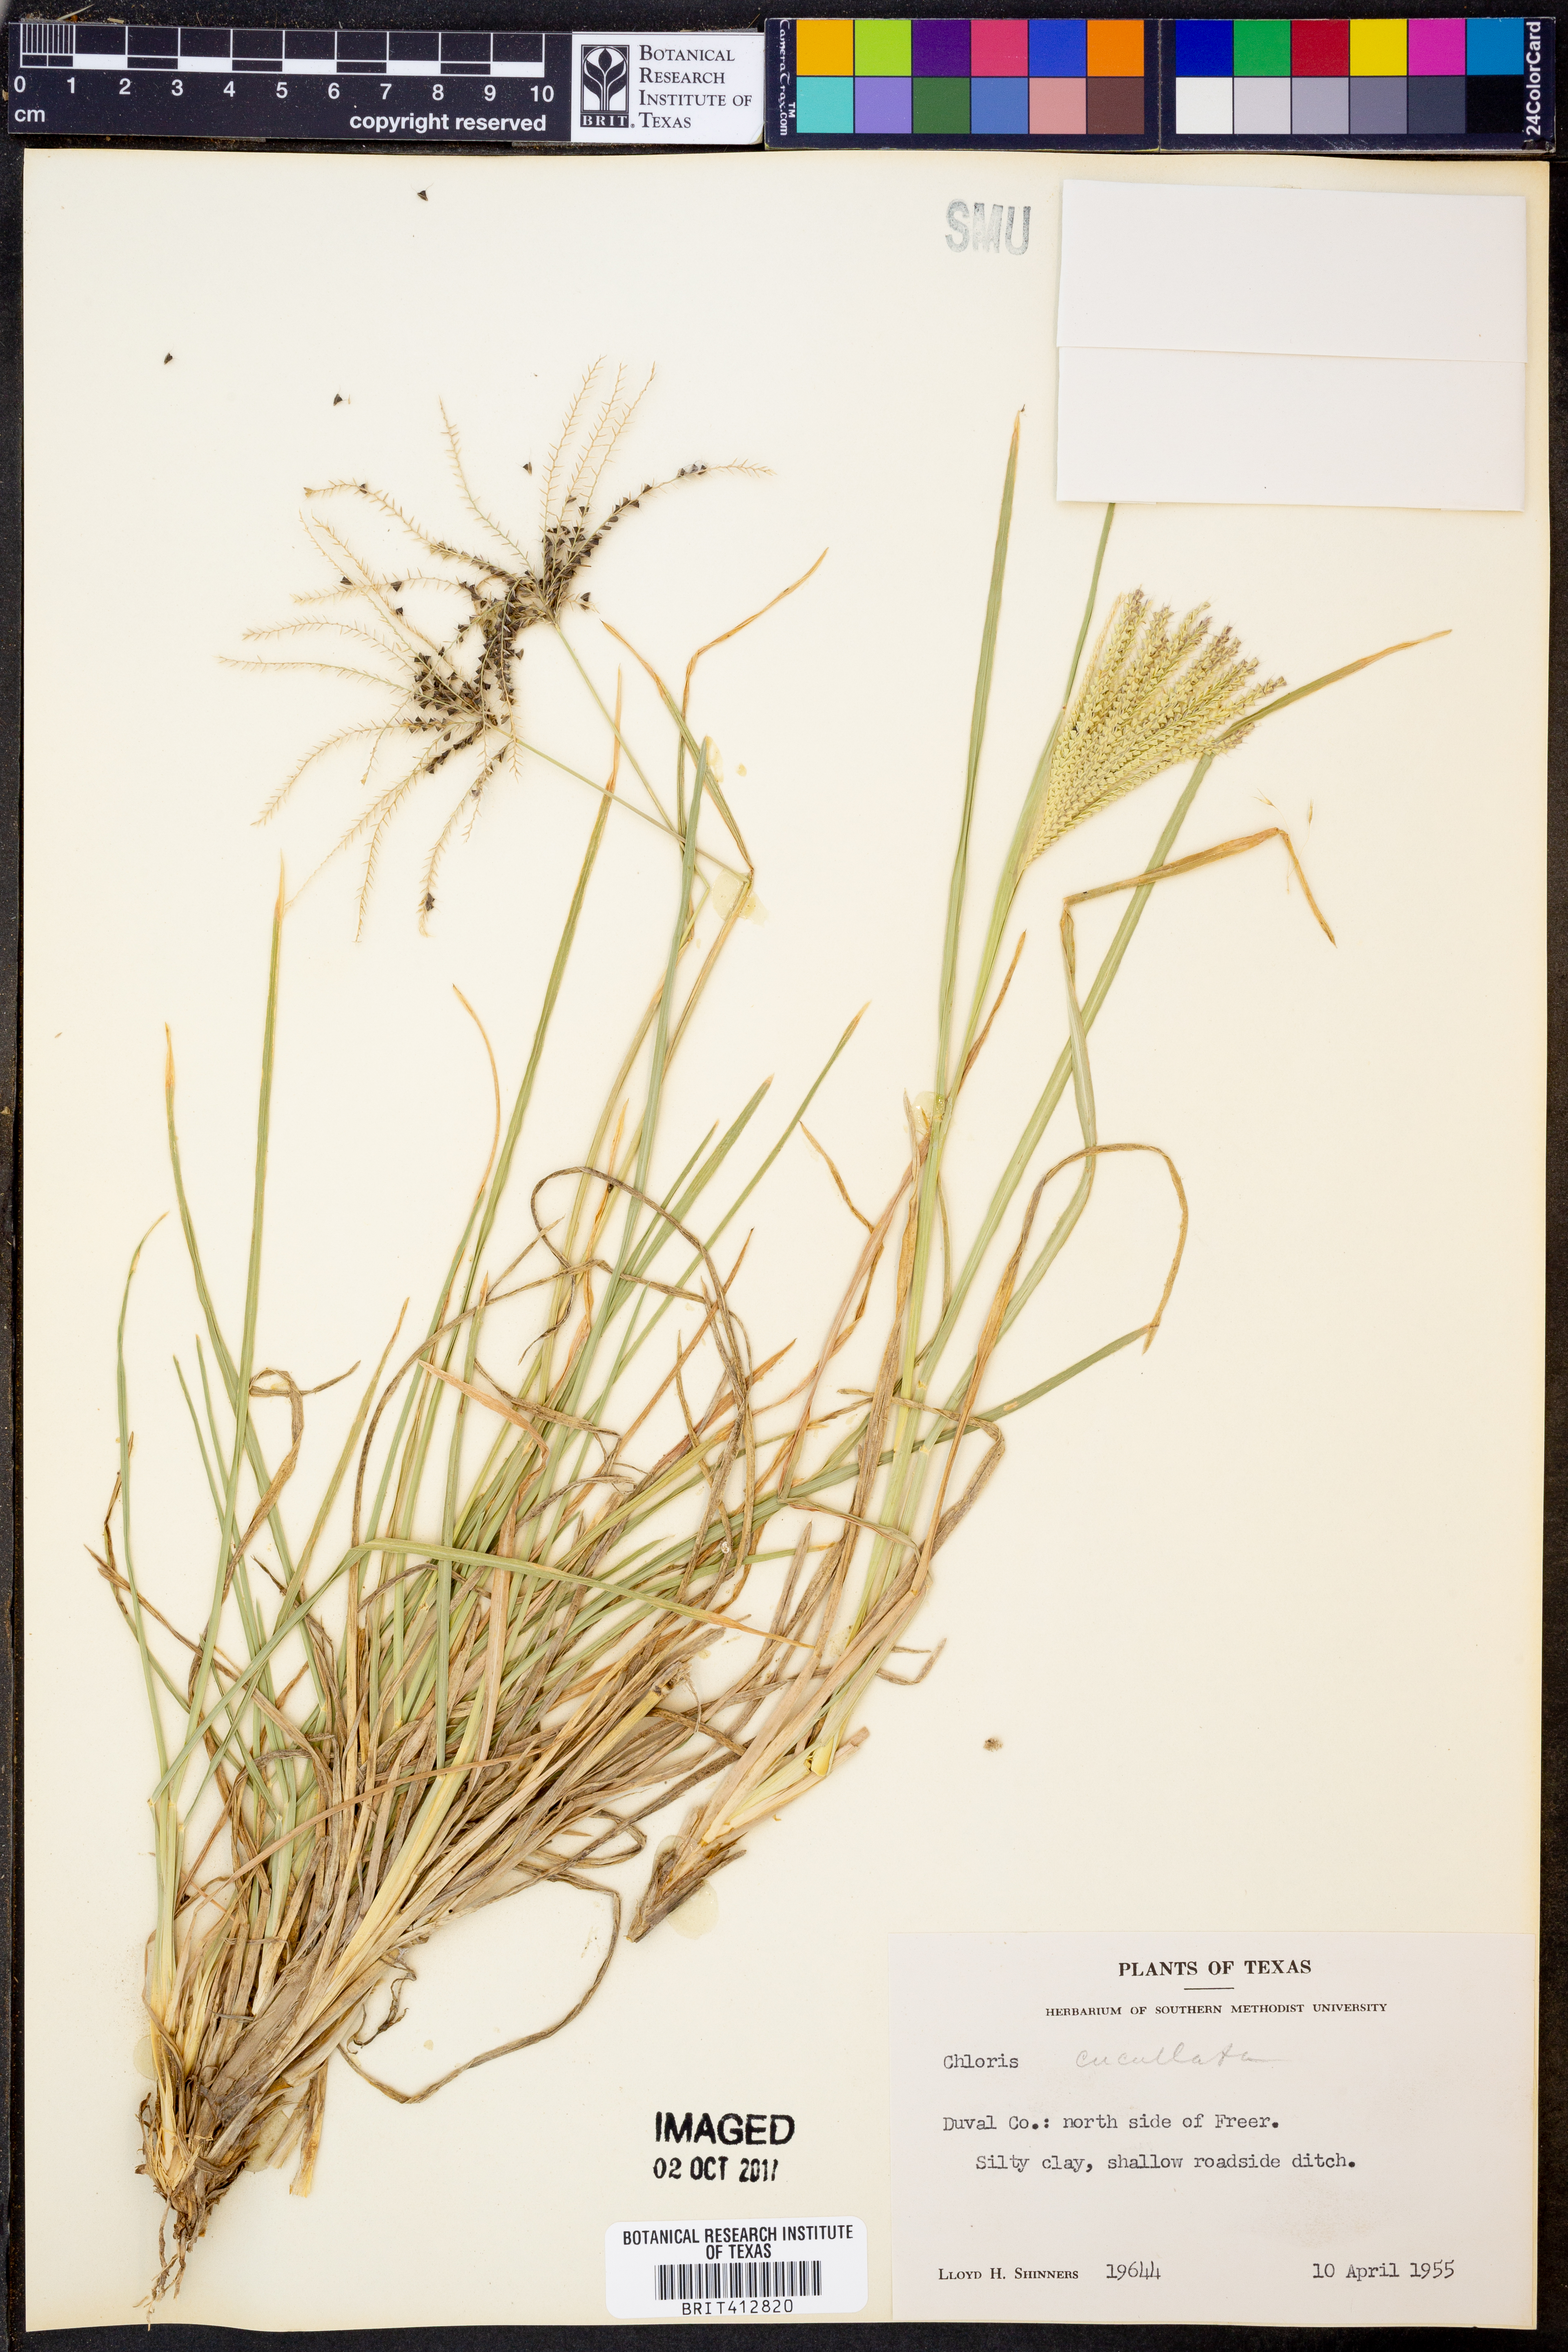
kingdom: Plantae
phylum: Tracheophyta
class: Liliopsida
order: Poales
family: Poaceae
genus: Chloris
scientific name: Chloris cucullata
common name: Hooded windmill grass
